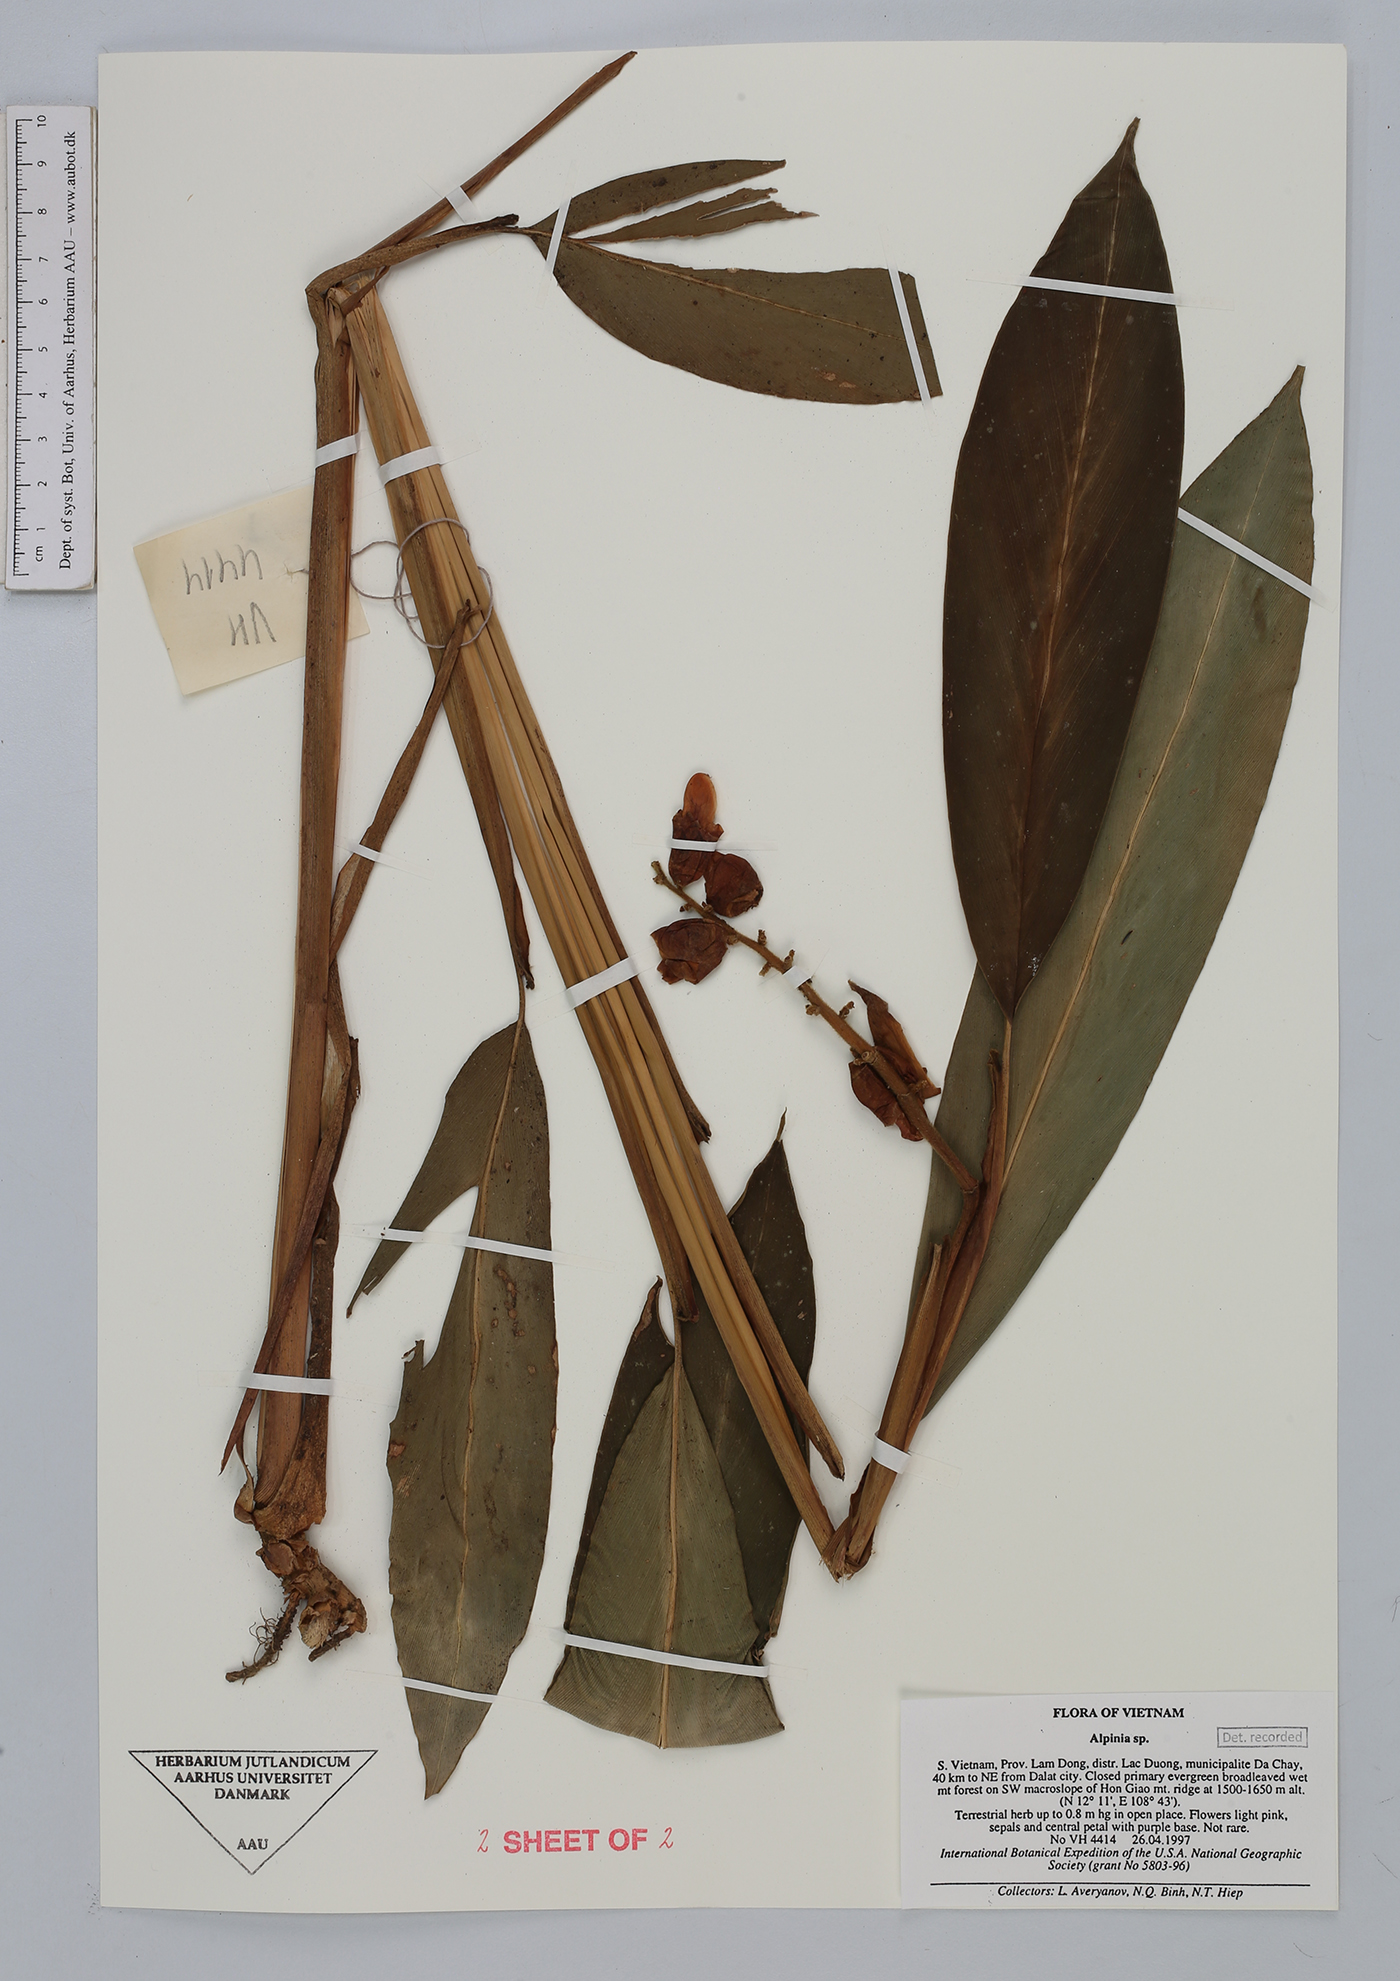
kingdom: Plantae
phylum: Tracheophyta
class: Liliopsida
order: Zingiberales
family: Zingiberaceae
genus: Alpinia
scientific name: Alpinia
